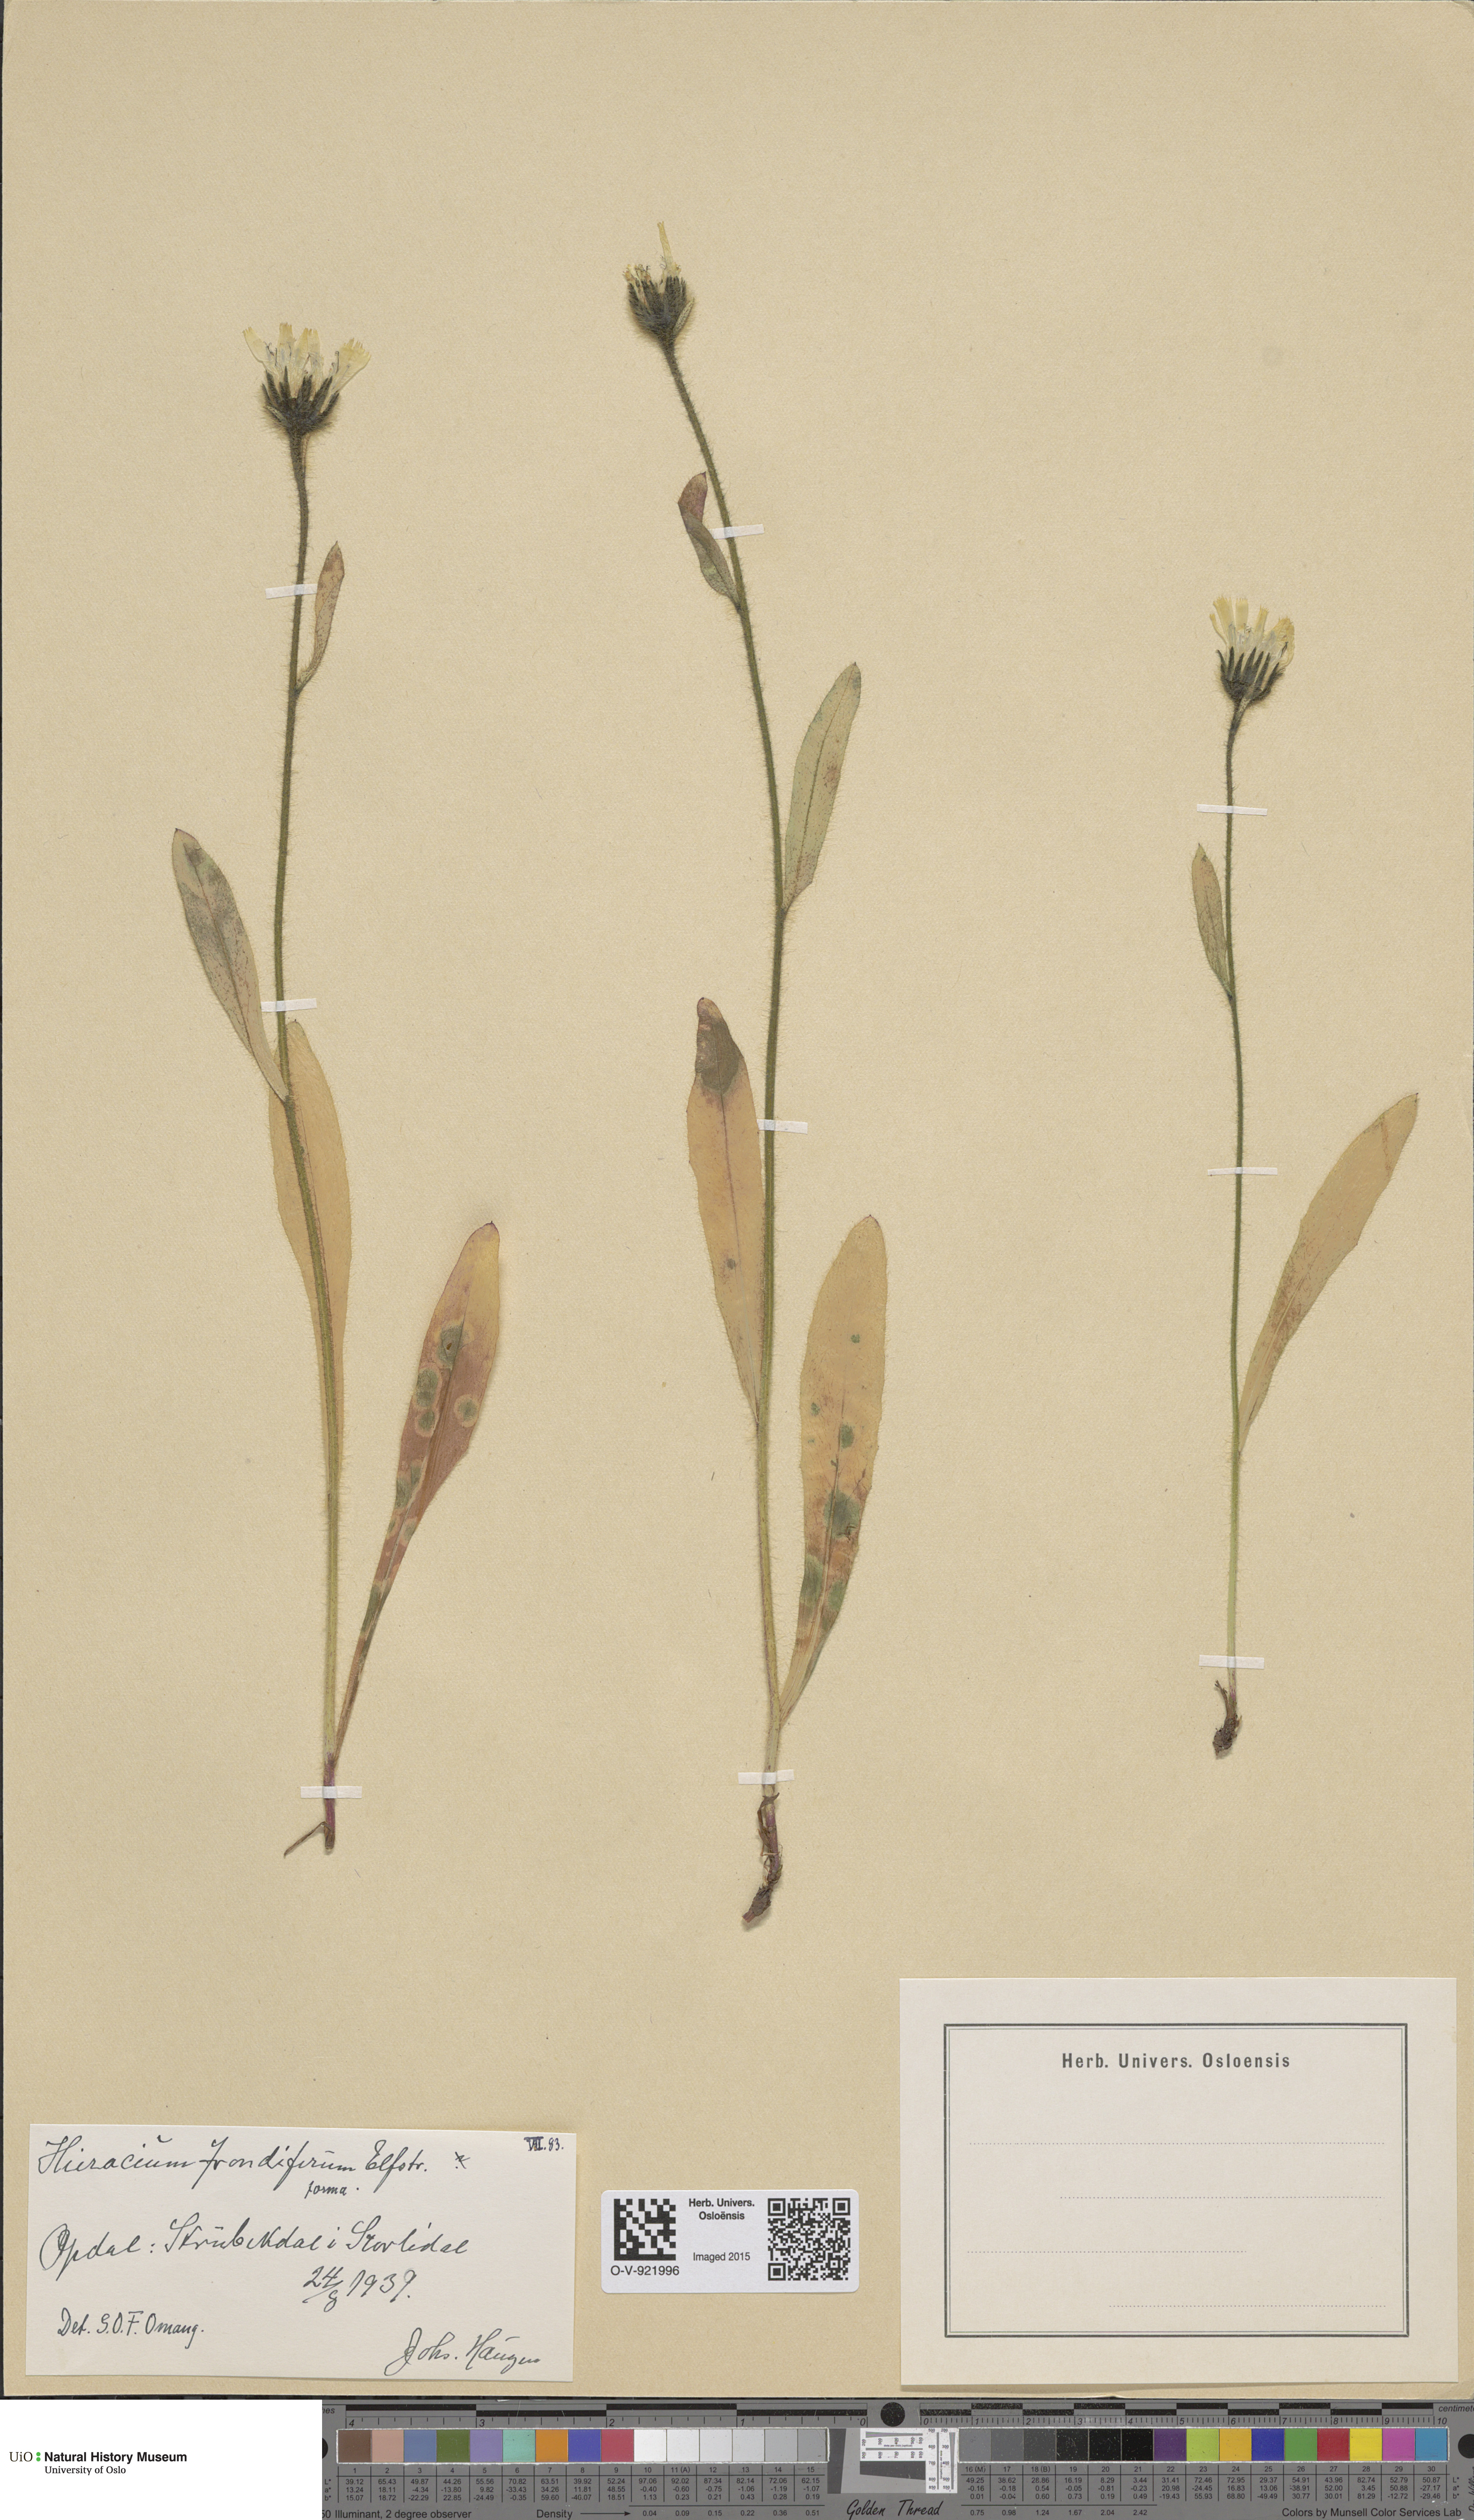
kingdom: Plantae
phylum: Tracheophyta
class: Magnoliopsida
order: Asterales
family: Asteraceae
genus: Hieracium
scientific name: Hieracium alpinum
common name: Alpine hawkweed
